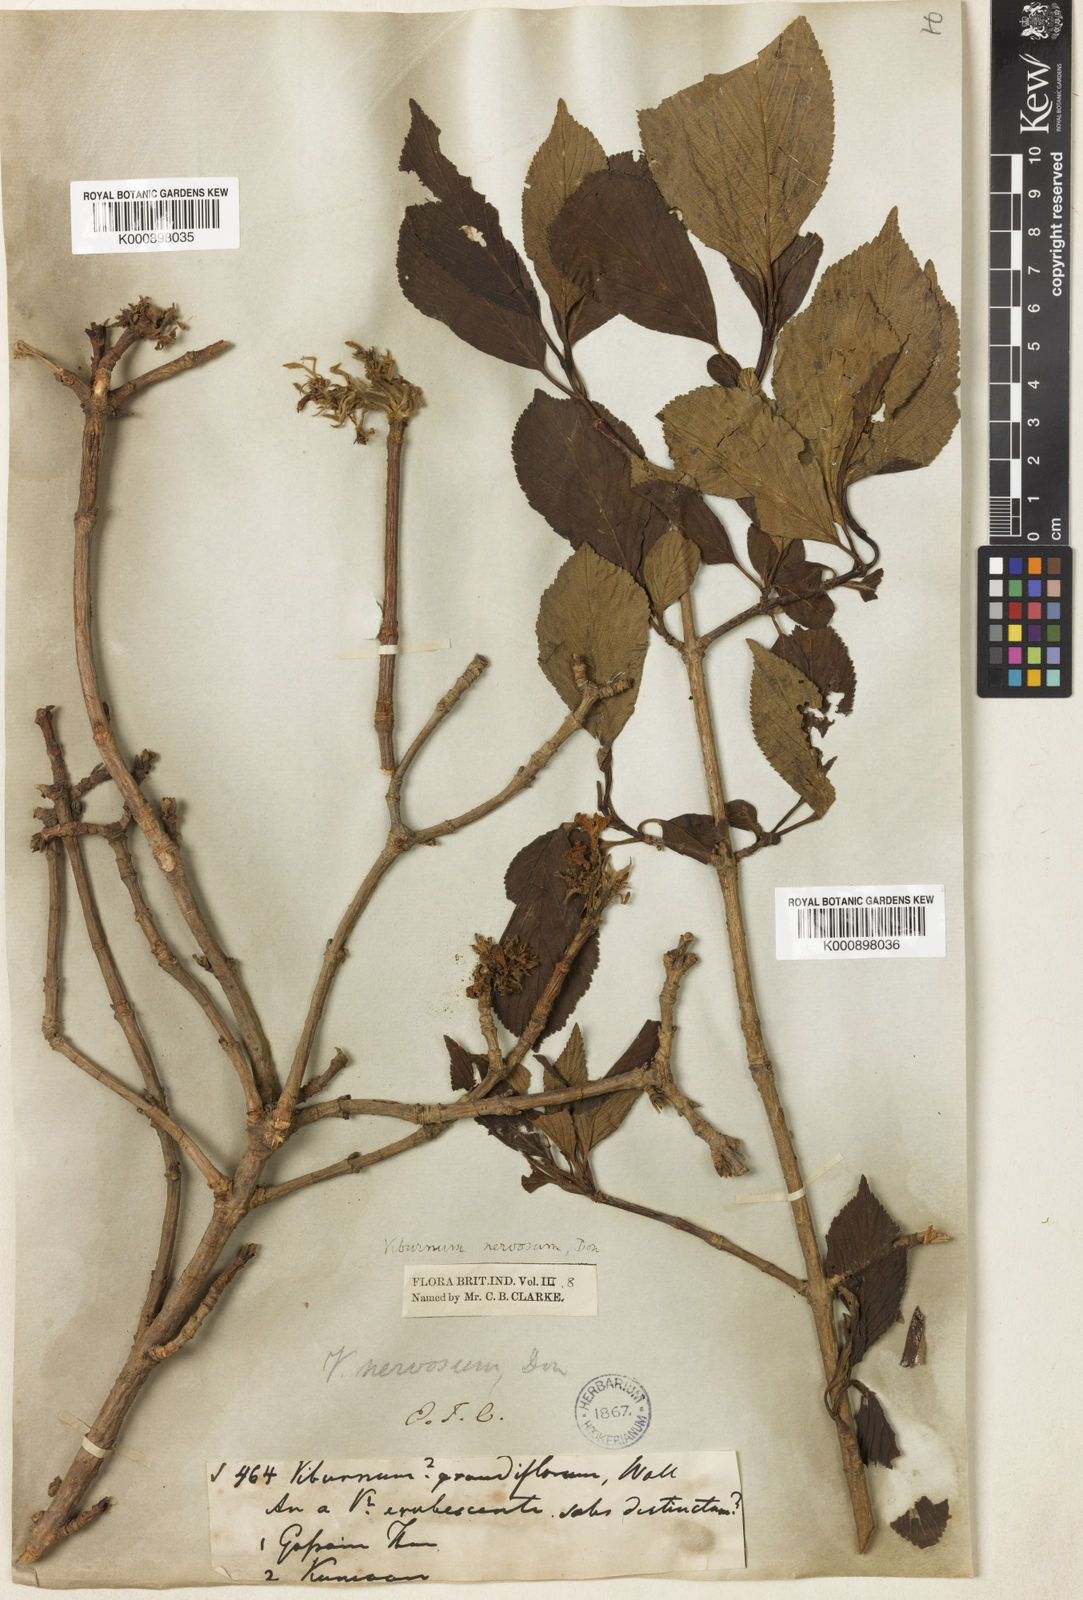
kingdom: Plantae
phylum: Tracheophyta
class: Magnoliopsida
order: Dipsacales
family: Viburnaceae
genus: Viburnum
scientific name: Viburnum grandiflorum
